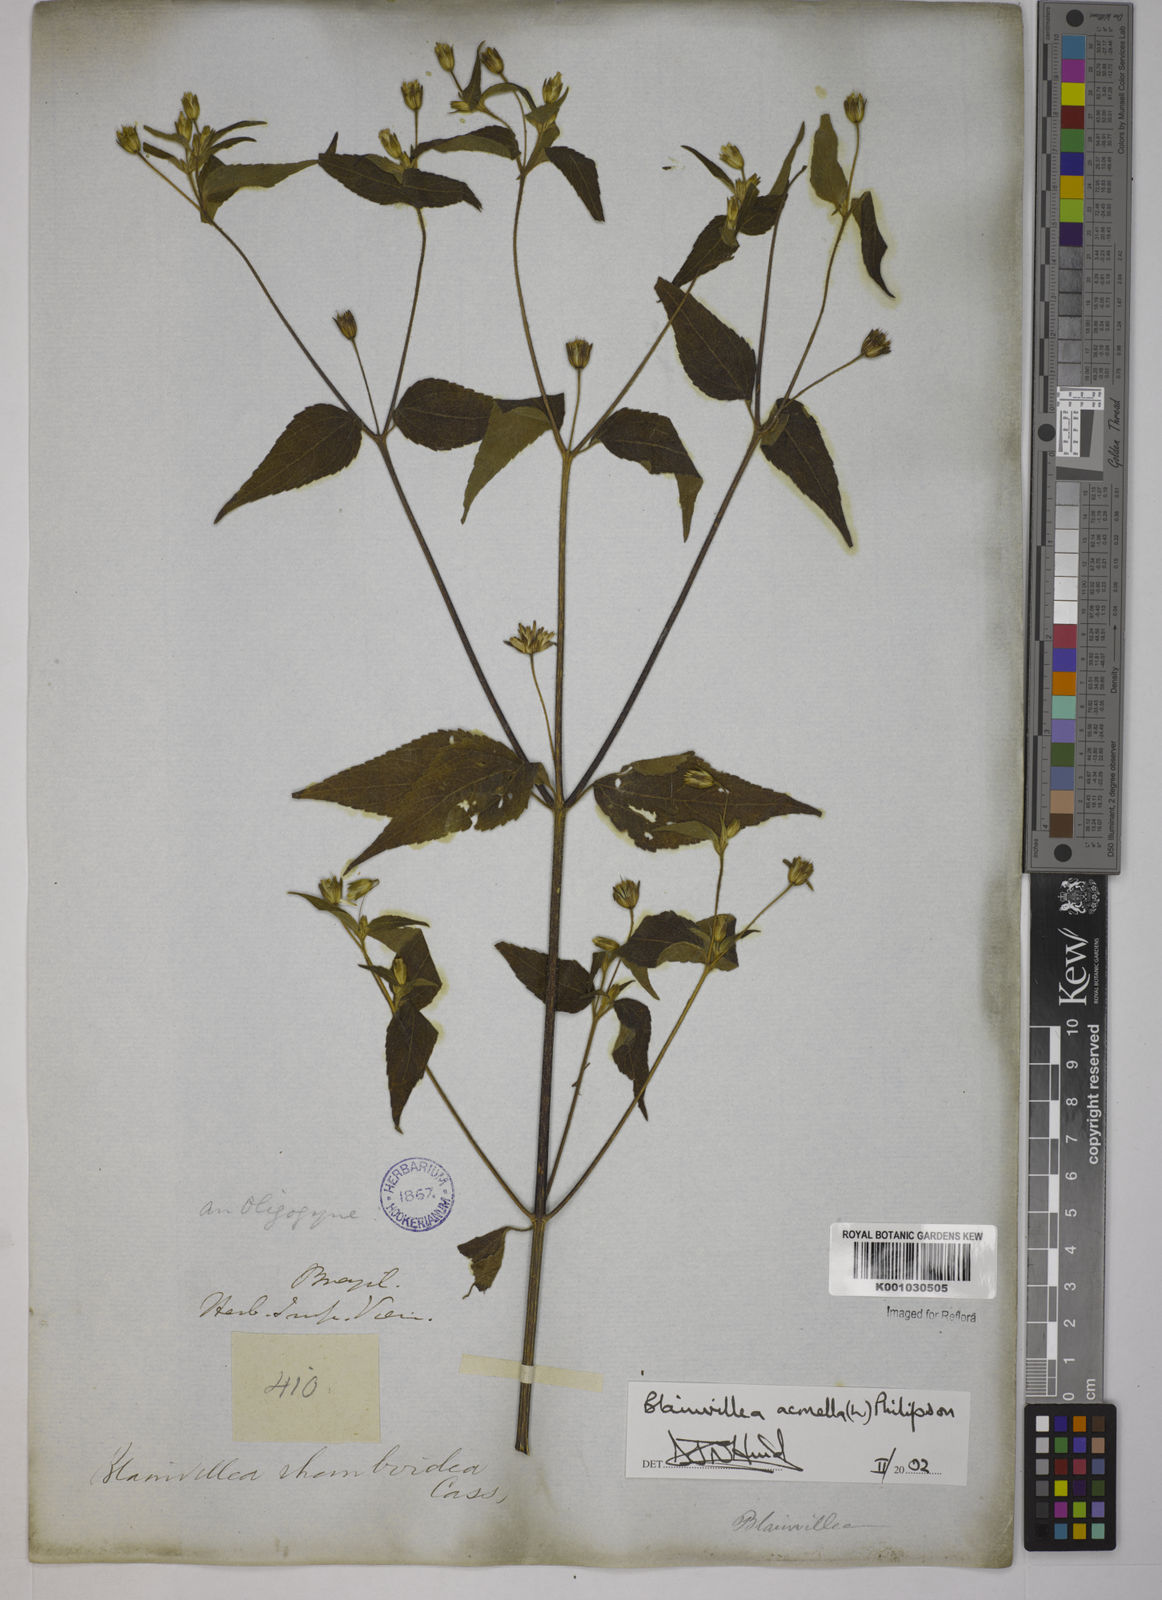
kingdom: Plantae
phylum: Tracheophyta
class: Magnoliopsida
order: Asterales
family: Asteraceae
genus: Blainvillea
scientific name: Blainvillea acmella
